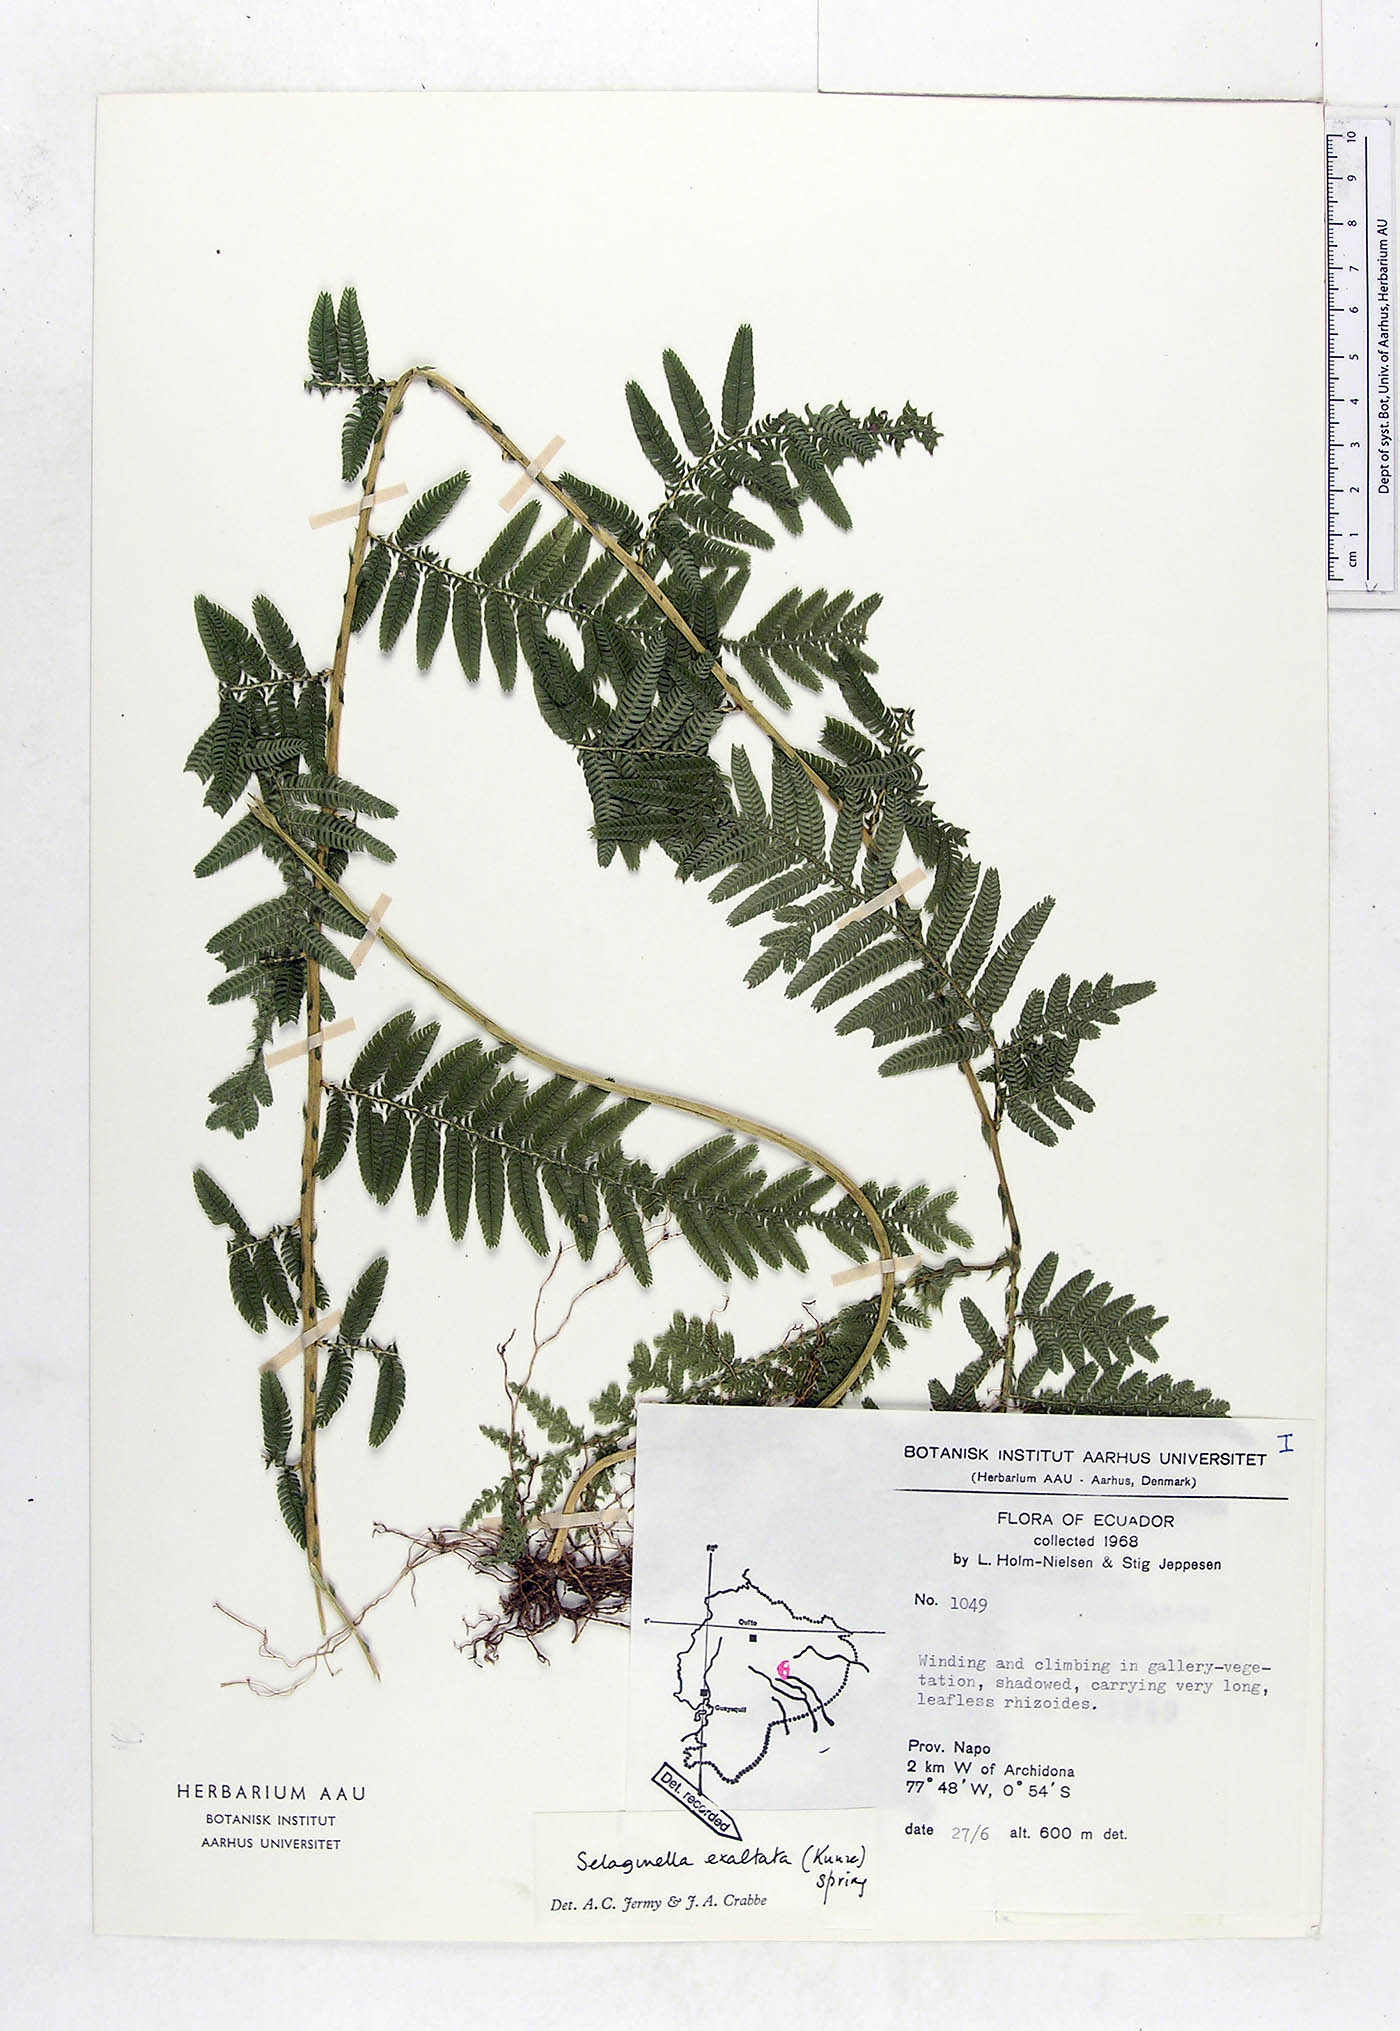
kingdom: Plantae
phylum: Tracheophyta
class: Lycopodiopsida
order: Selaginellales
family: Selaginellaceae
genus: Selaginella
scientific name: Selaginella exaltata
